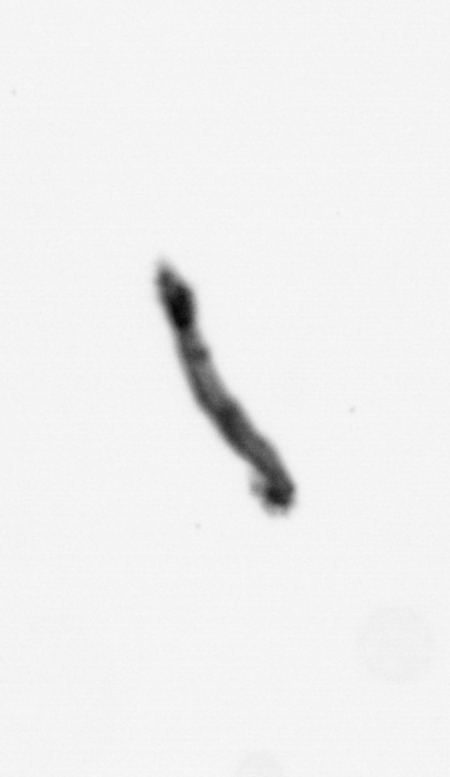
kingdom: Animalia
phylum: Annelida
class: Polychaeta
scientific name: Polychaeta
